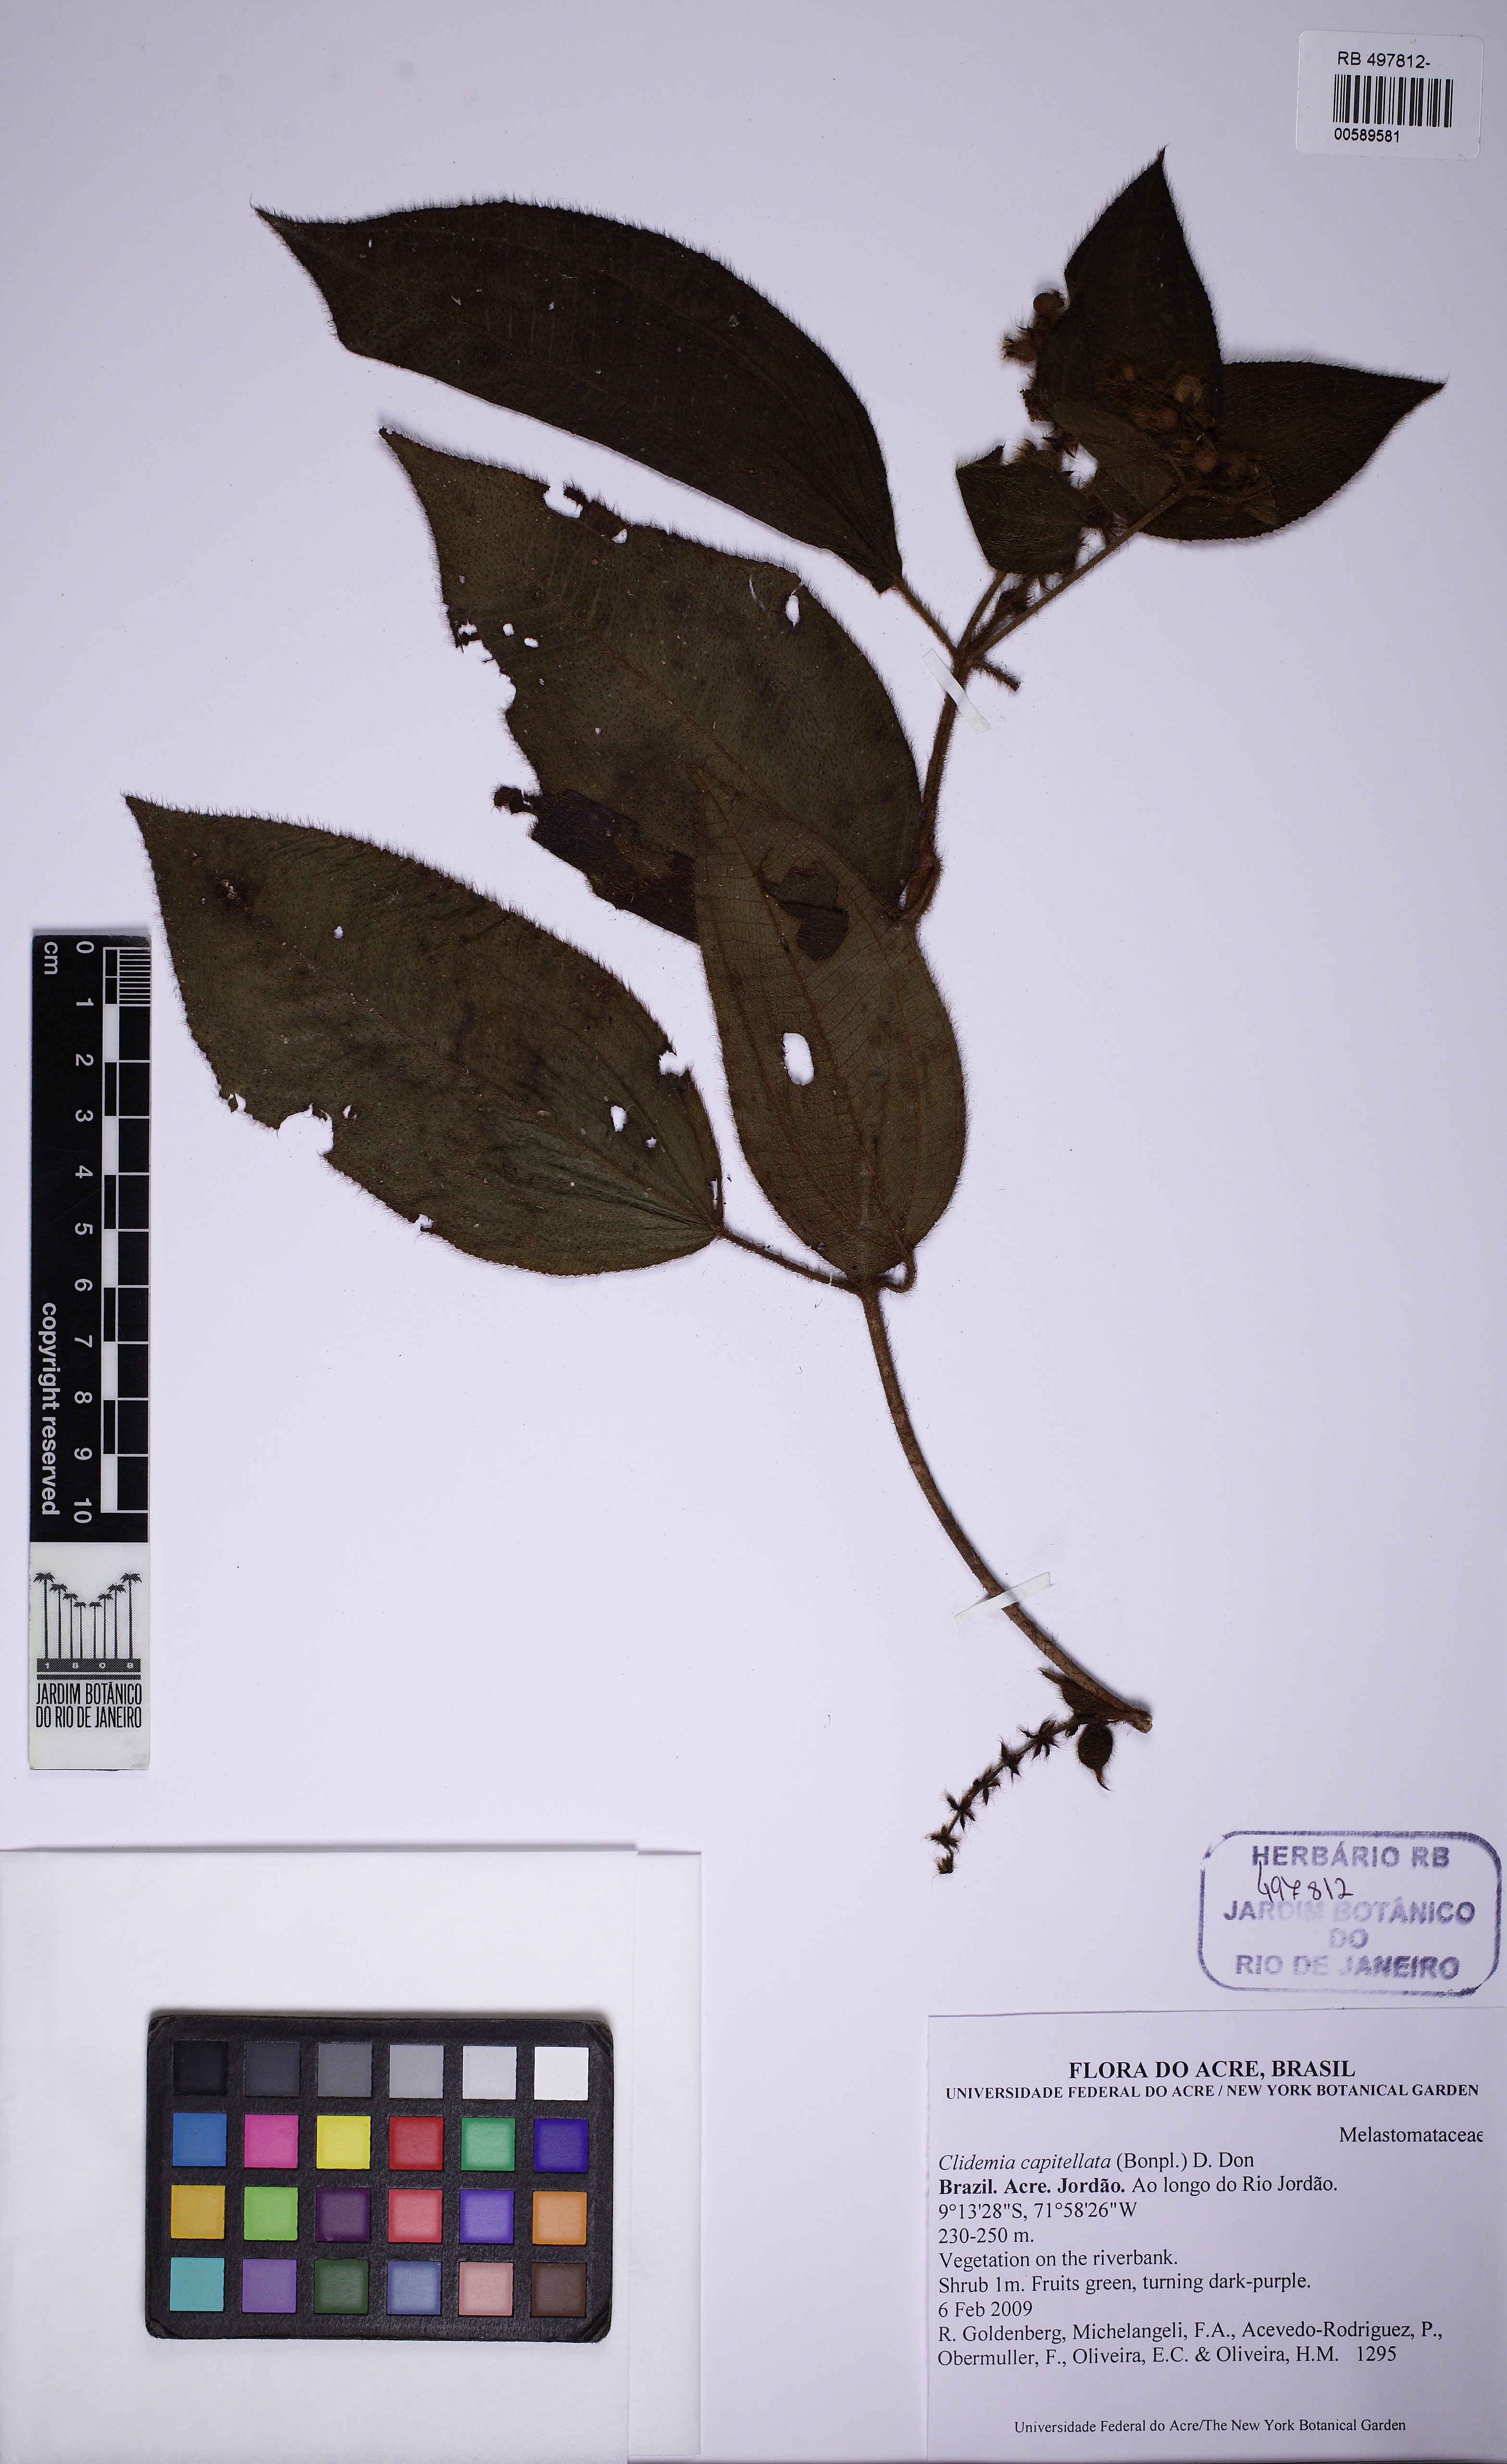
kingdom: Plantae
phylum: Tracheophyta
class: Magnoliopsida
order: Myrtales
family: Melastomataceae
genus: Miconia
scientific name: Miconia dependens
